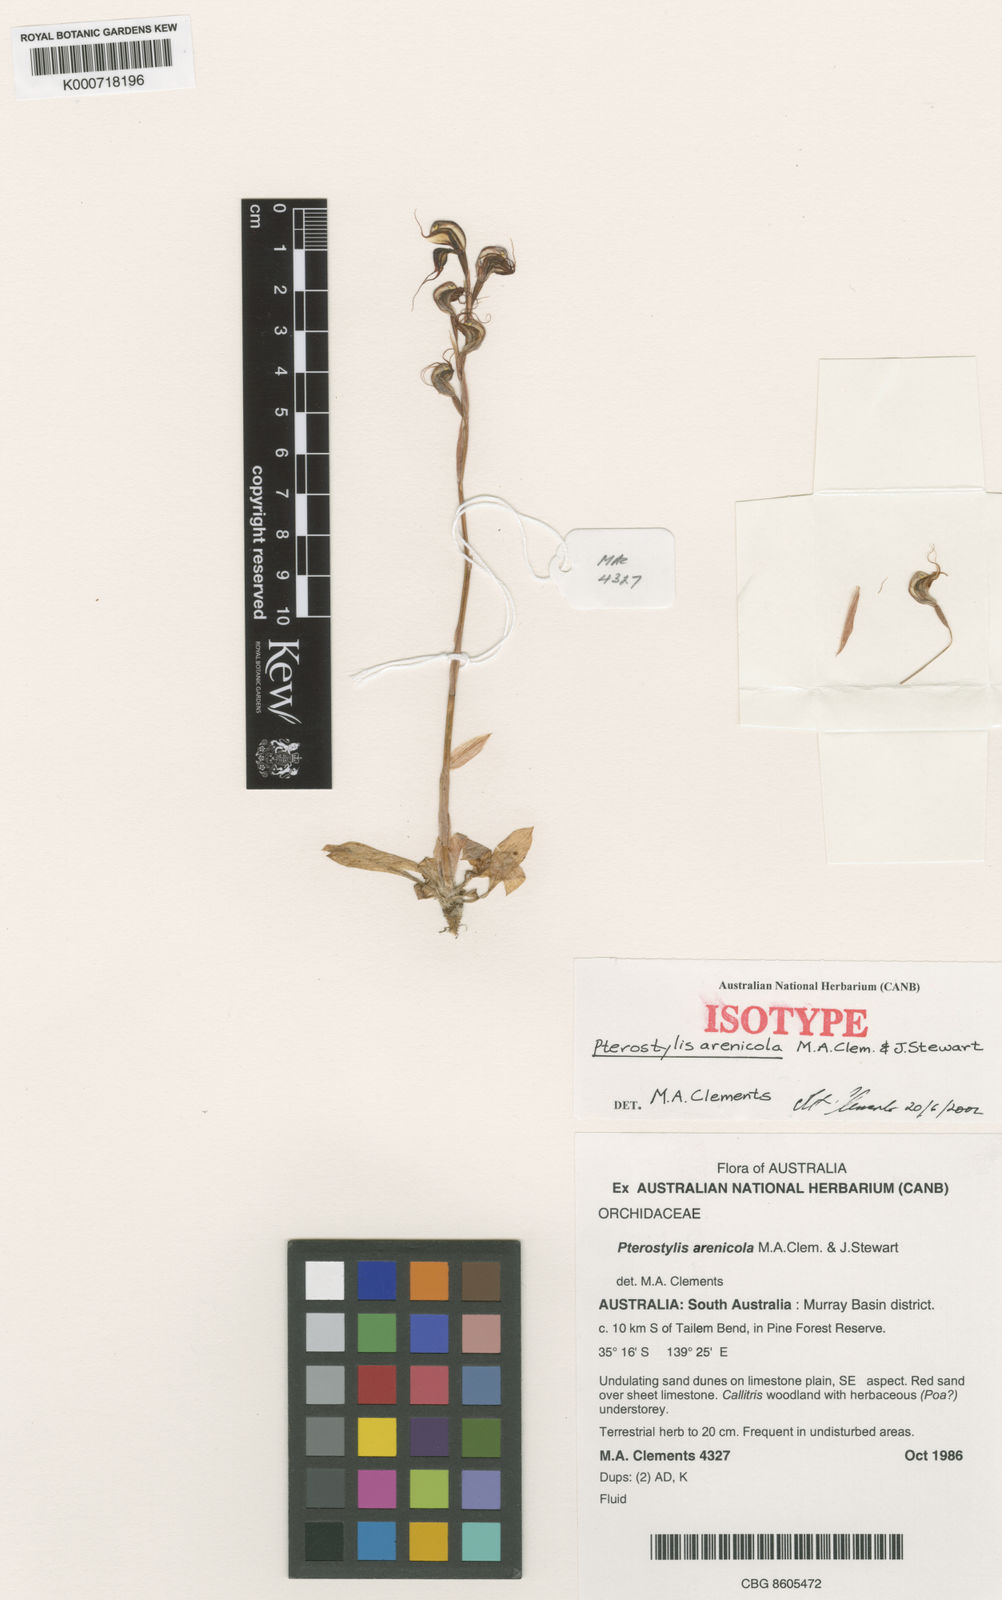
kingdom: Plantae
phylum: Tracheophyta
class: Liliopsida
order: Asparagales
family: Orchidaceae
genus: Pterostylis
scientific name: Pterostylis arenicola
